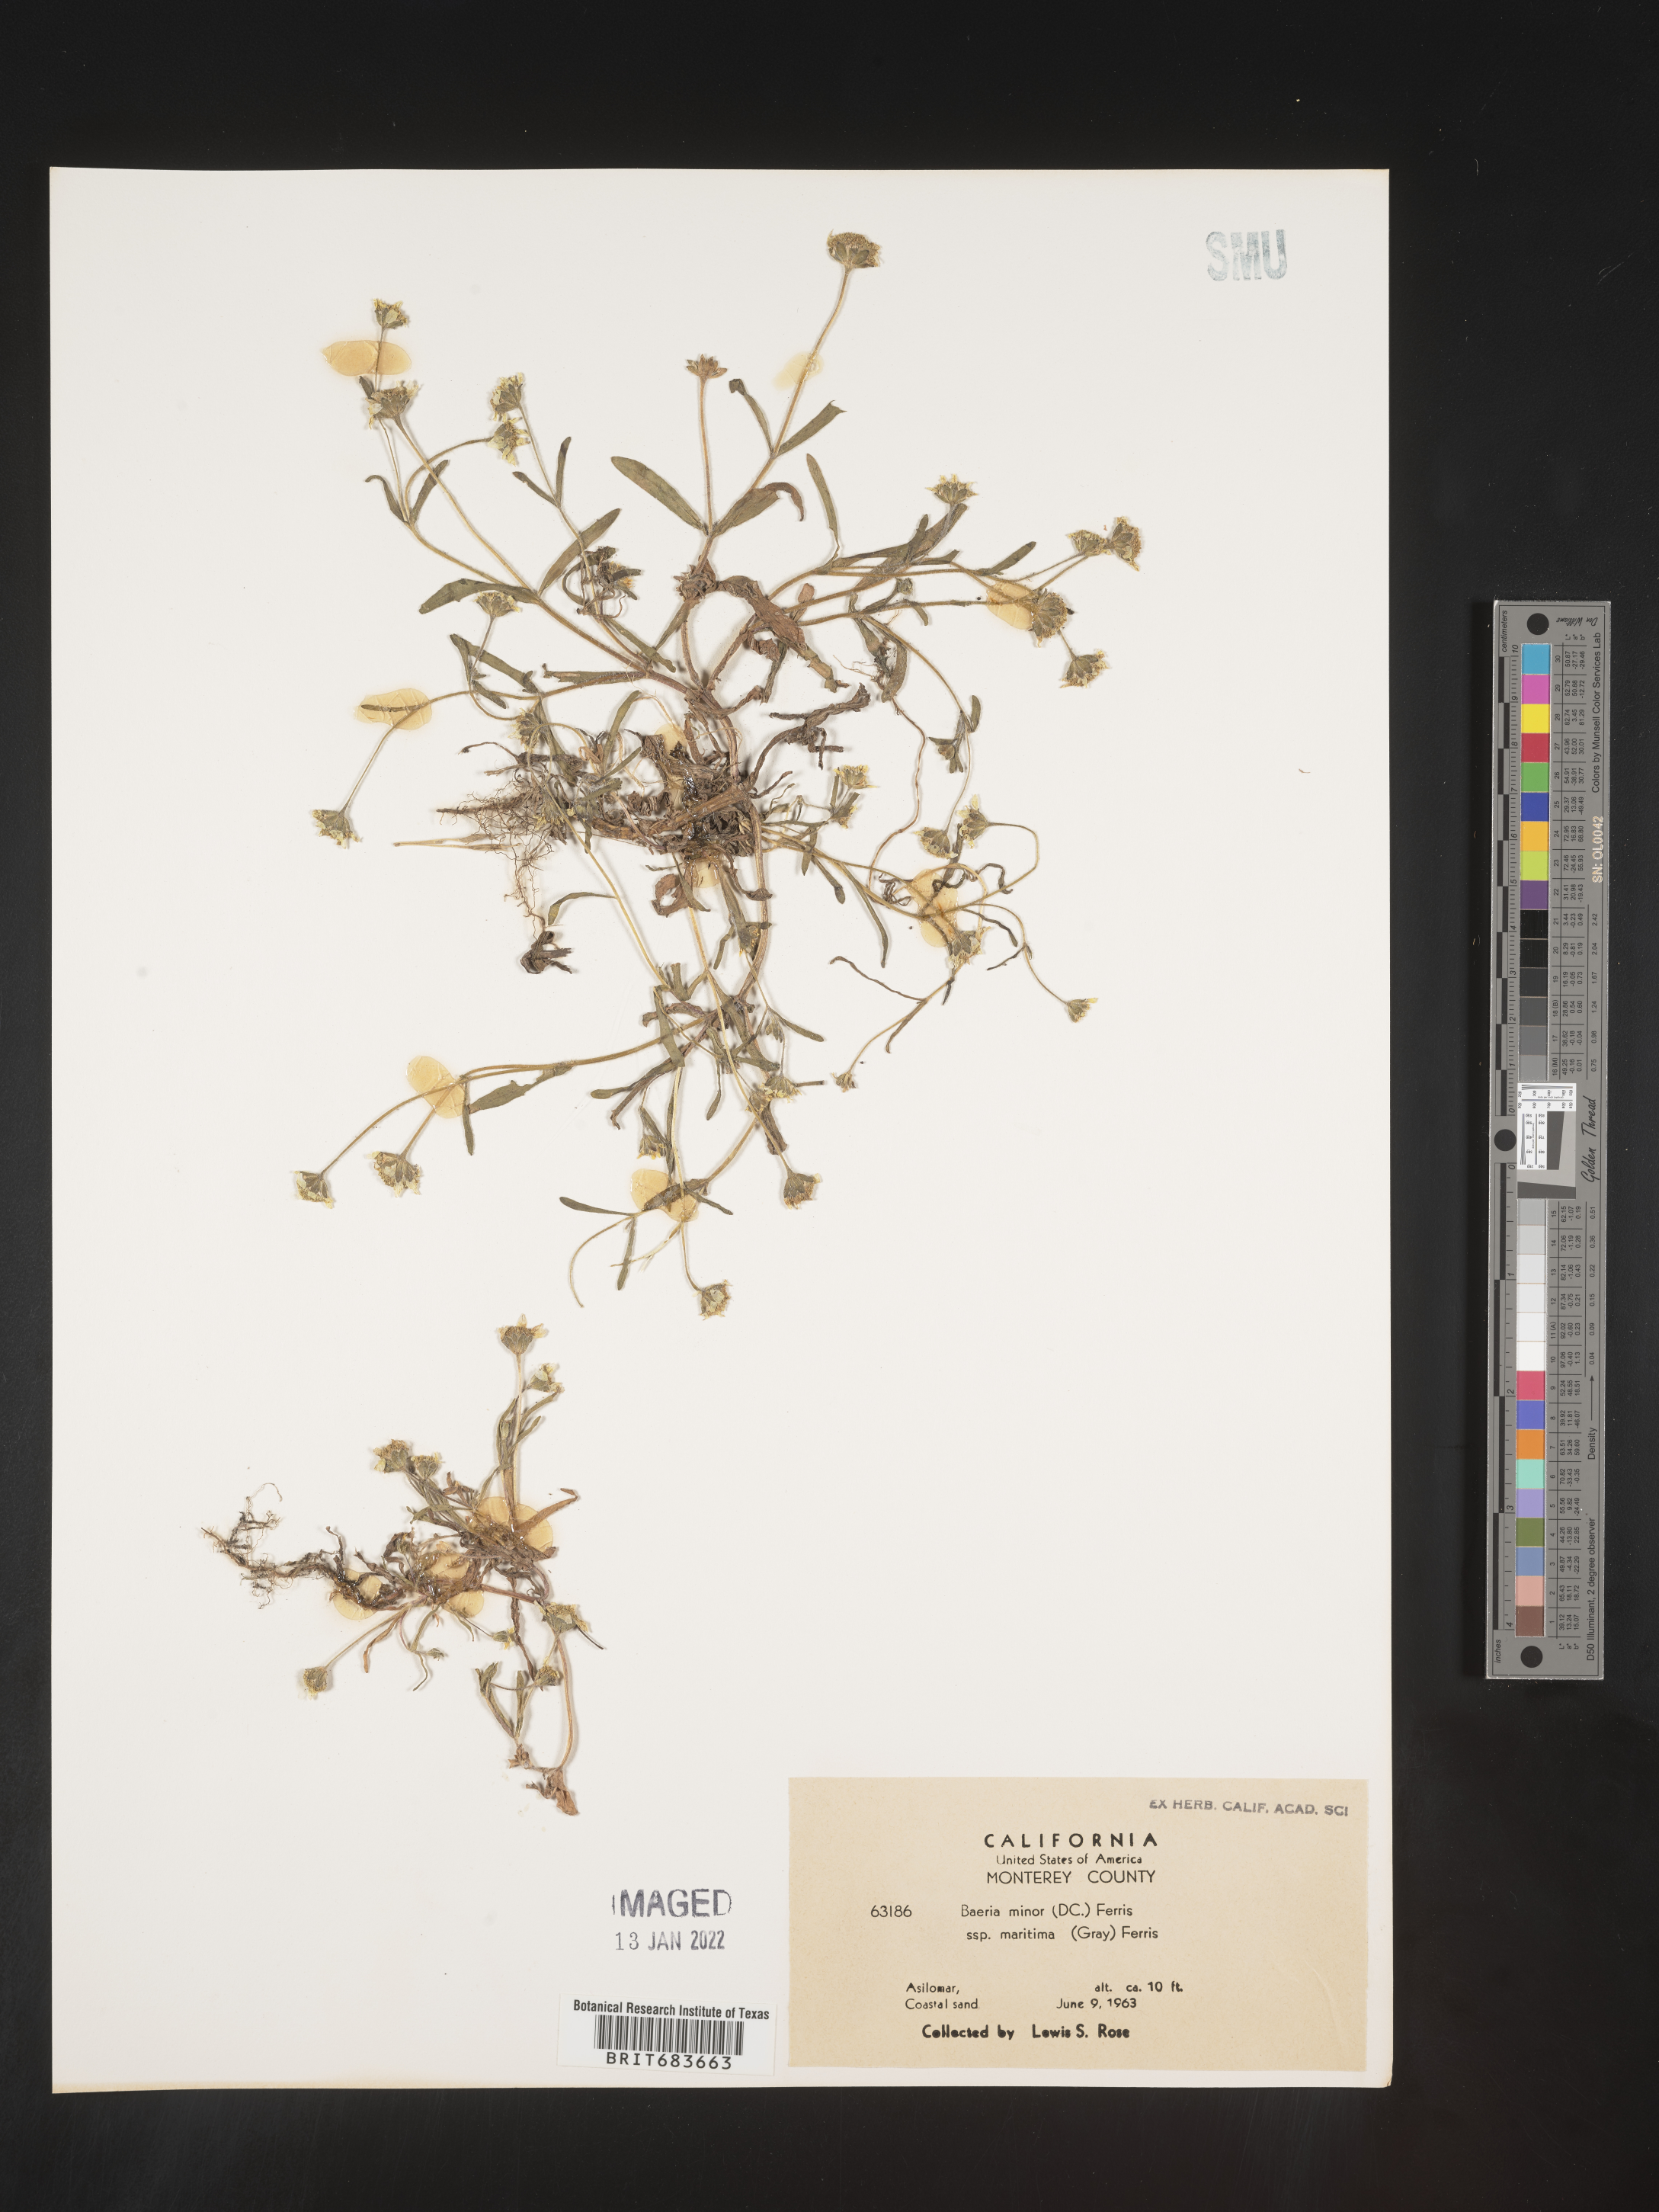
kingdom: Plantae
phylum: Tracheophyta
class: Magnoliopsida
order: Asterales
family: Asteraceae
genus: Lasthenia
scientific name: Lasthenia
